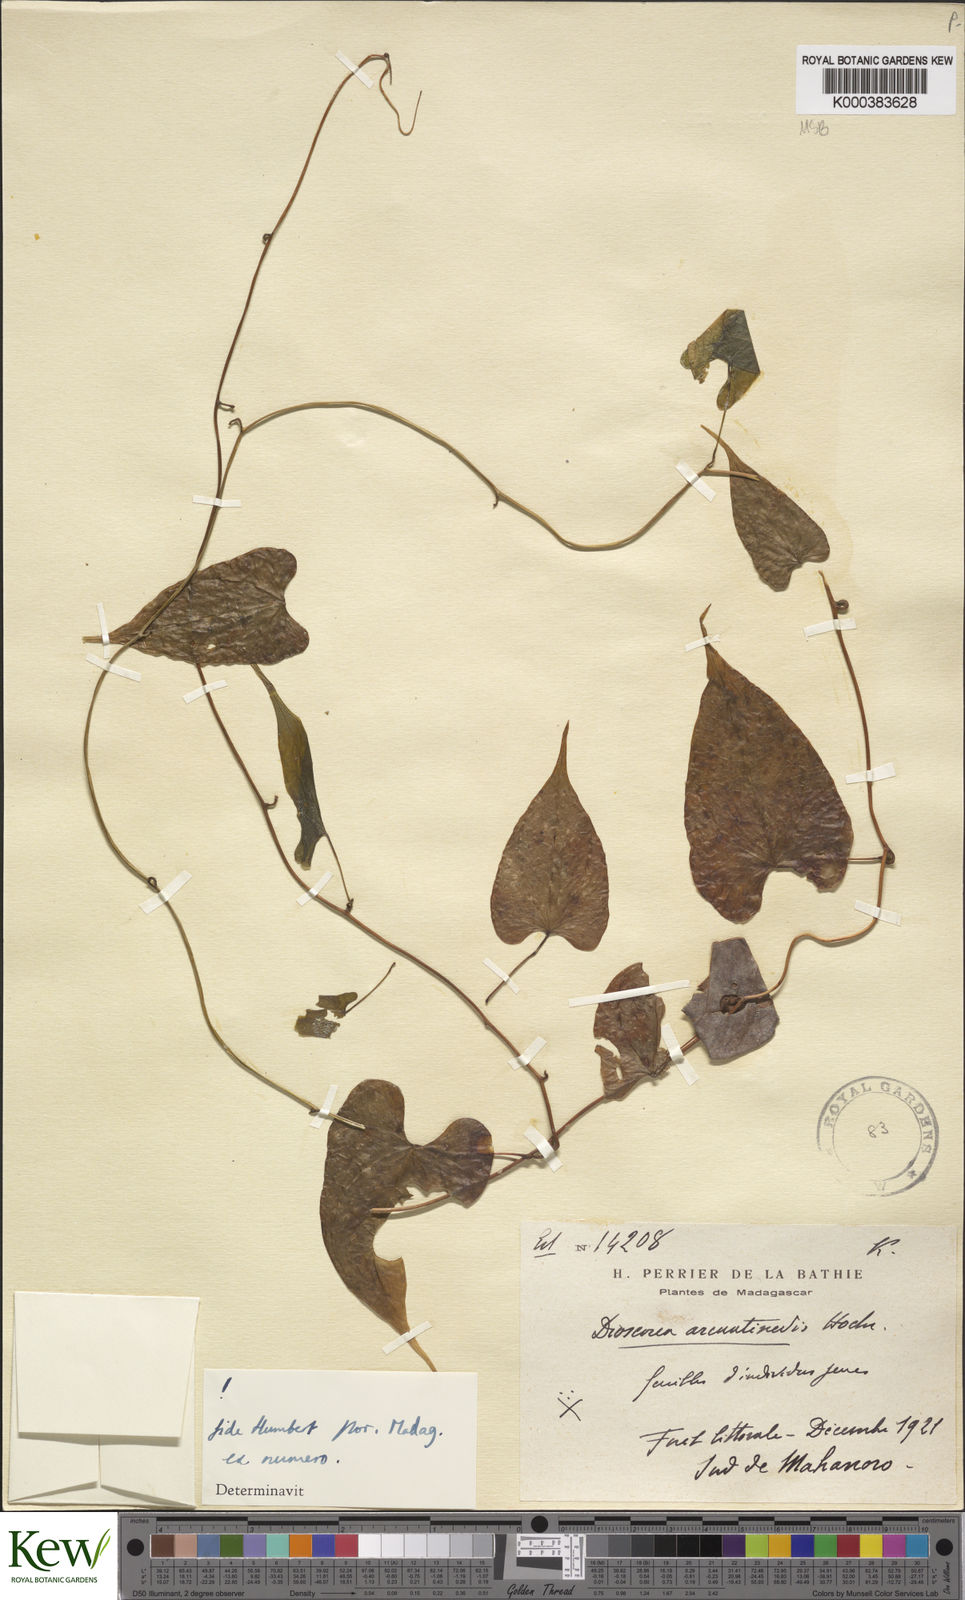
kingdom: Plantae
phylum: Tracheophyta
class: Liliopsida
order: Dioscoreales
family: Dioscoreaceae
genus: Dioscorea
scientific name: Dioscorea arcuatinervis
